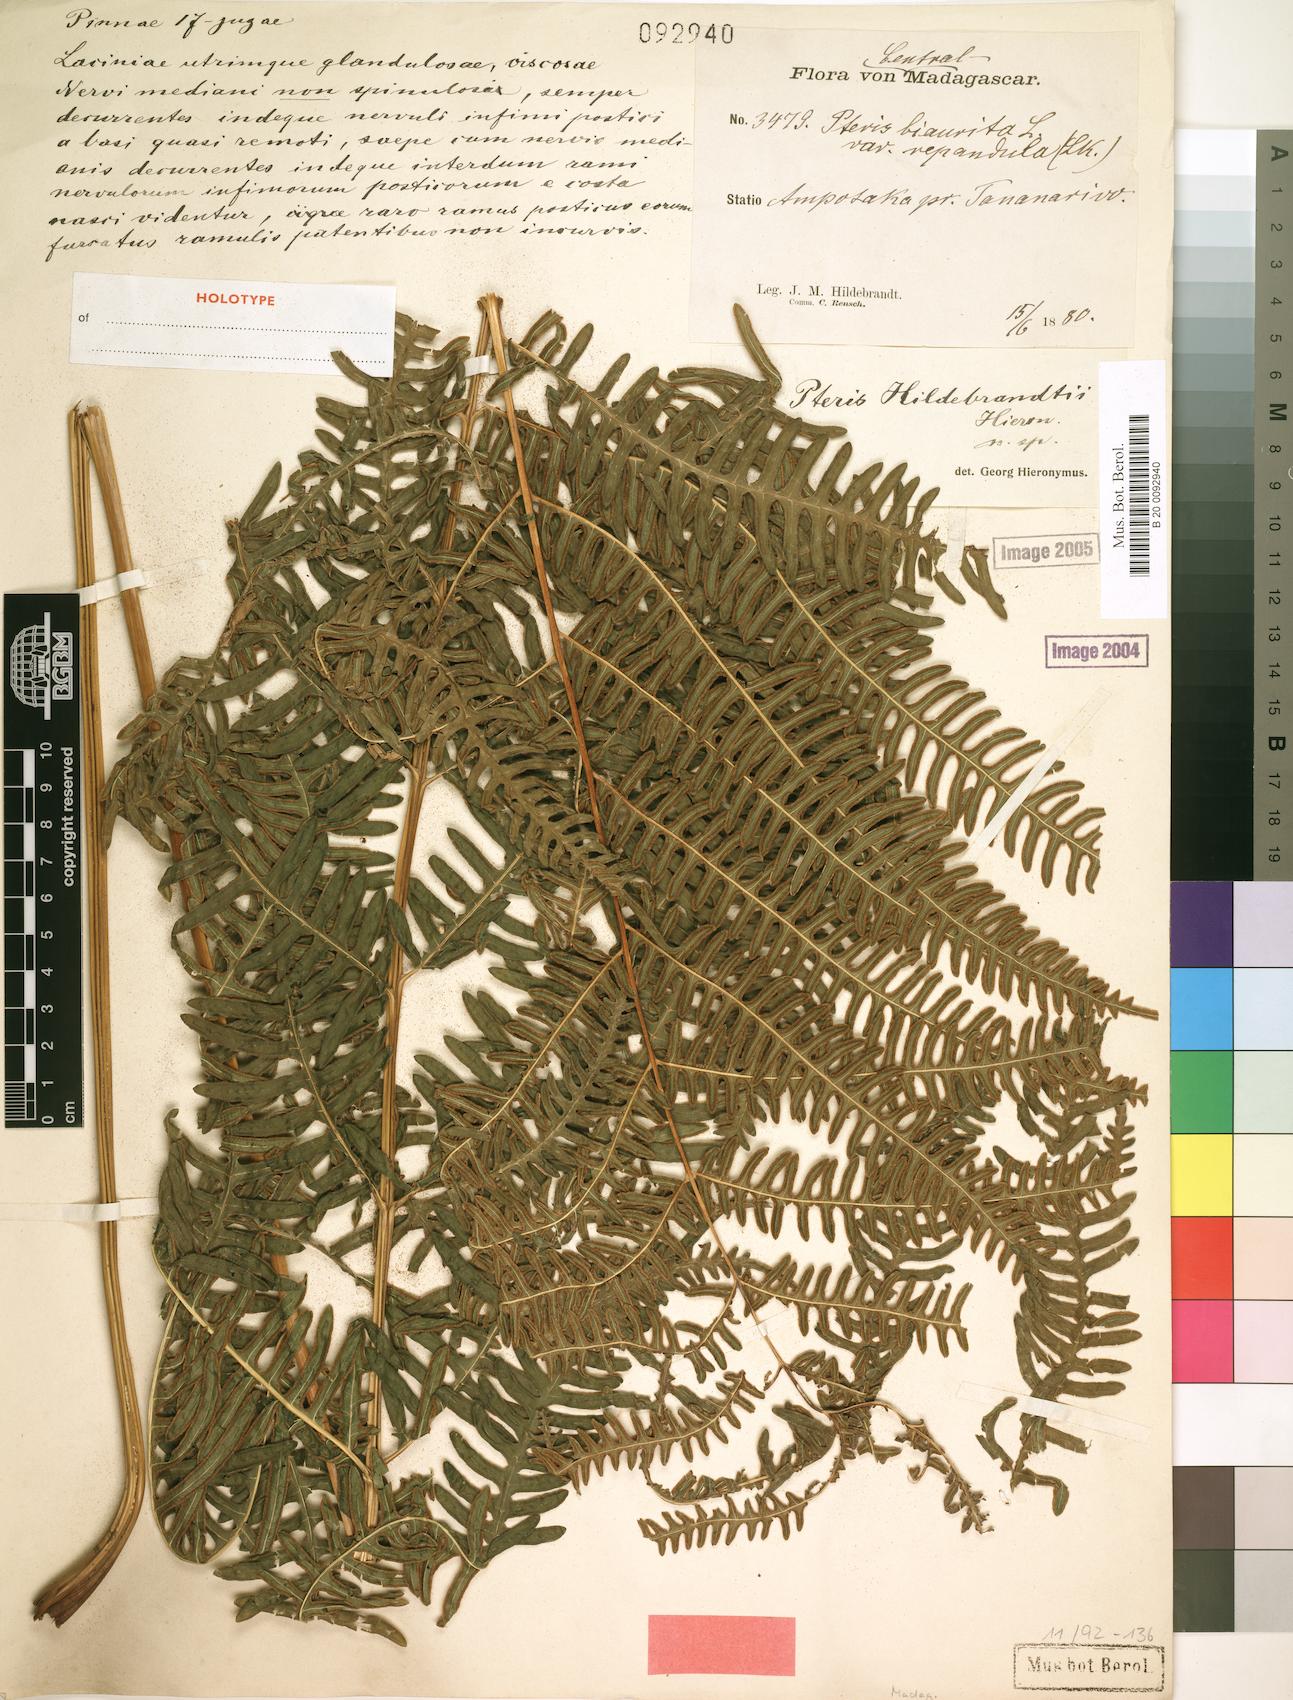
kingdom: Plantae
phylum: Tracheophyta
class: Polypodiopsida
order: Polypodiales
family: Pteridaceae
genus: Pteris
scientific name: Pteris friesii
